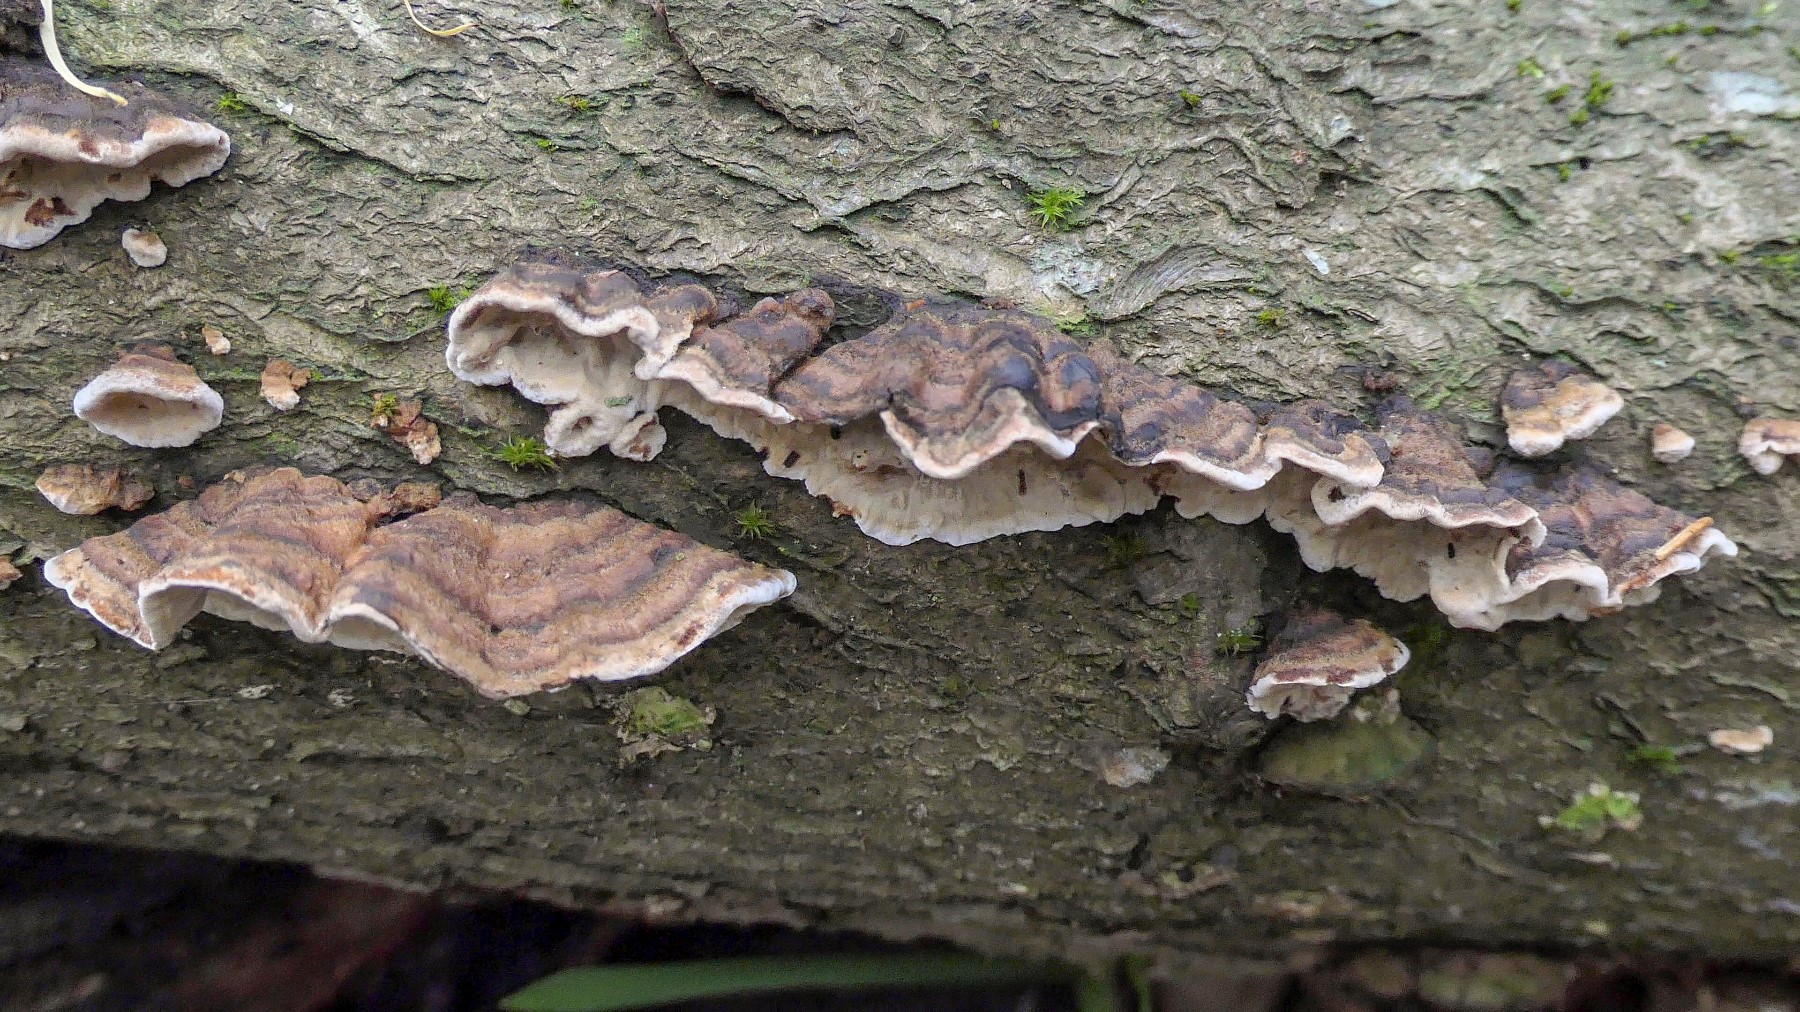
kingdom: Fungi
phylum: Basidiomycota
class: Agaricomycetes
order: Russulales
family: Hericiaceae
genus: Laxitextum
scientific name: Laxitextum bicolor
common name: tvefarvet filtskind
